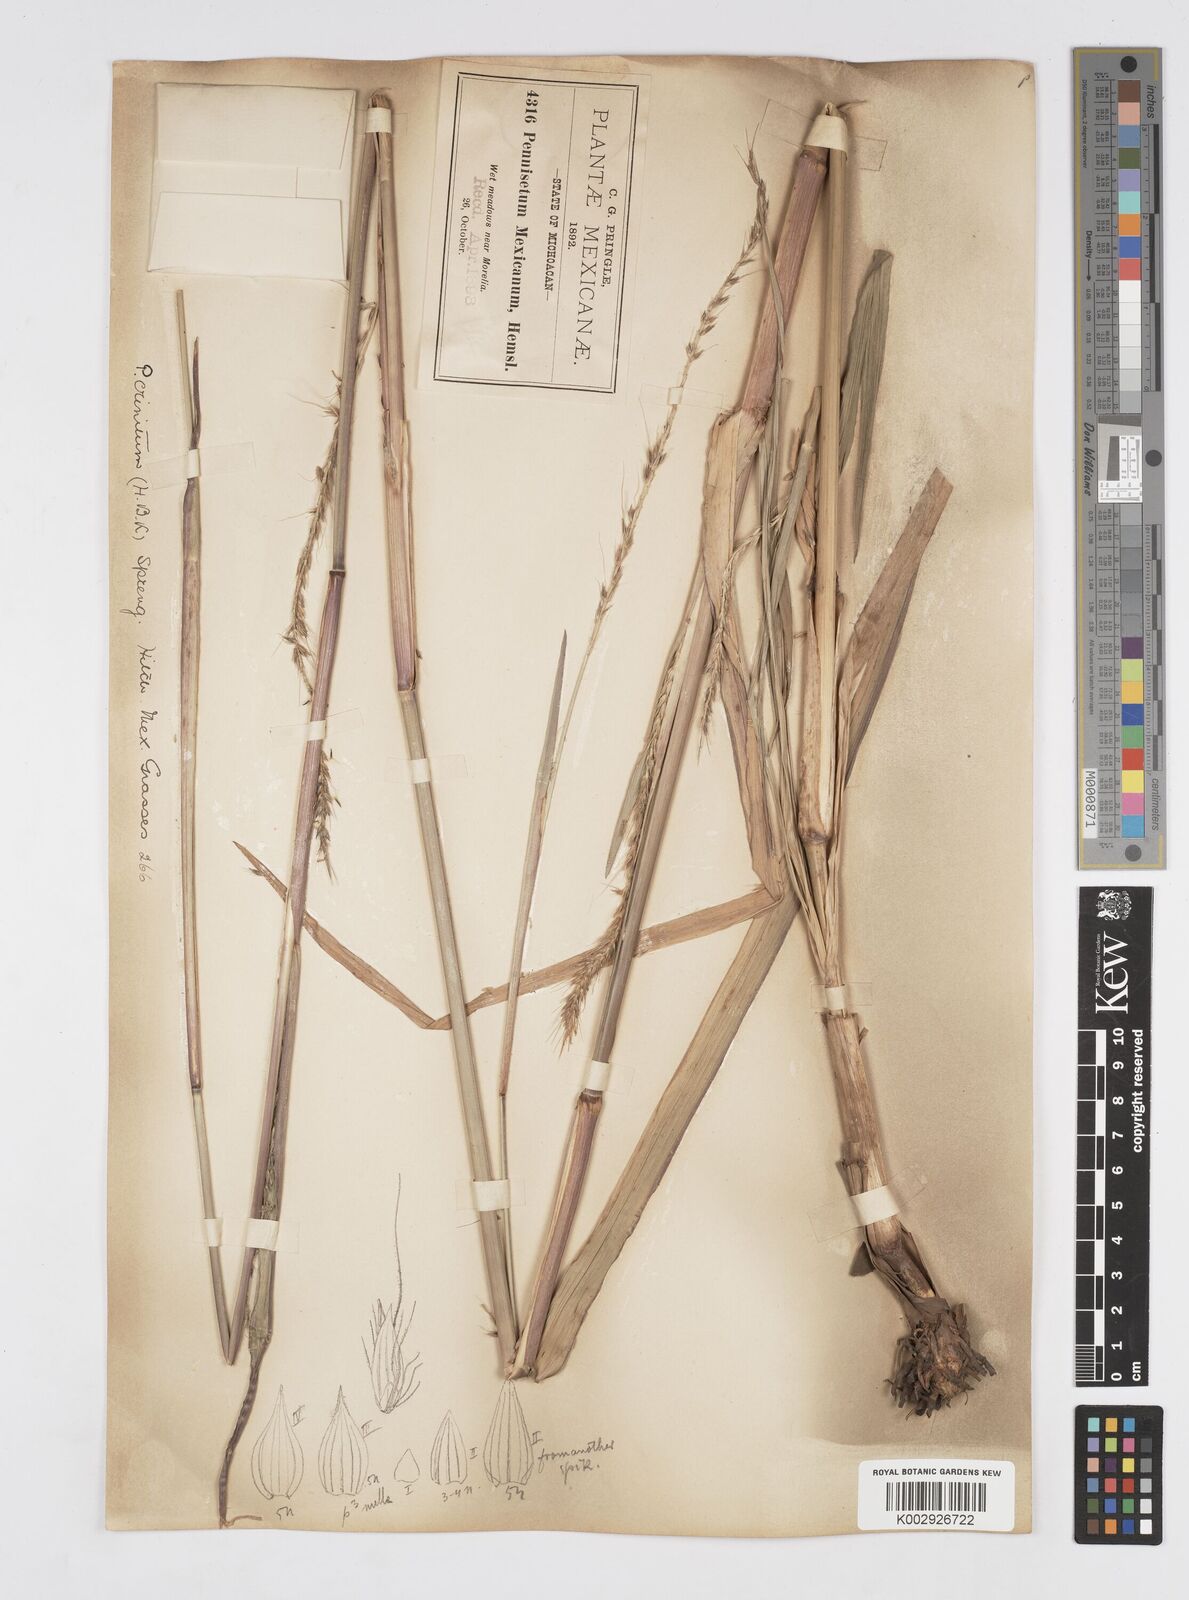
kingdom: Plantae
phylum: Tracheophyta
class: Liliopsida
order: Poales
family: Poaceae
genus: Cenchrus
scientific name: Cenchrus michoacanus
